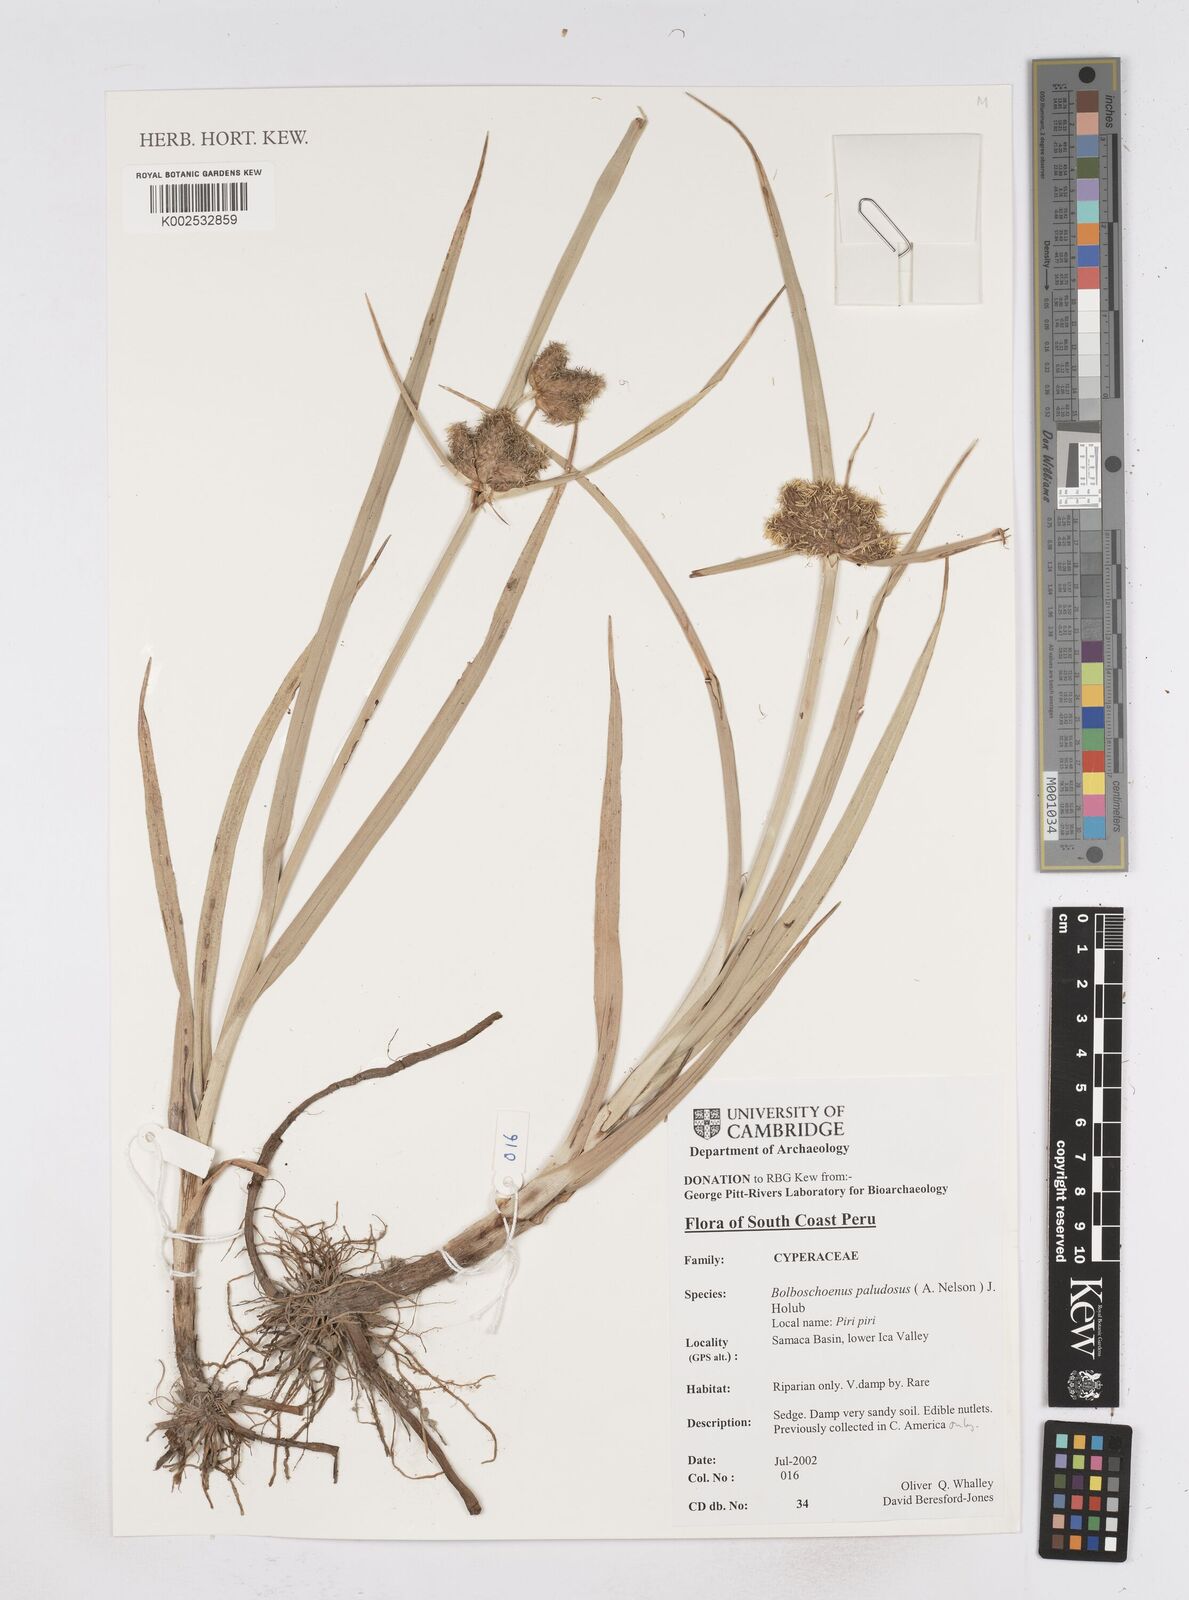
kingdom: Plantae
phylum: Tracheophyta
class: Liliopsida
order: Poales
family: Cyperaceae
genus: Bolboschoenus
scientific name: Bolboschoenus maritimus
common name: Sea club-rush
